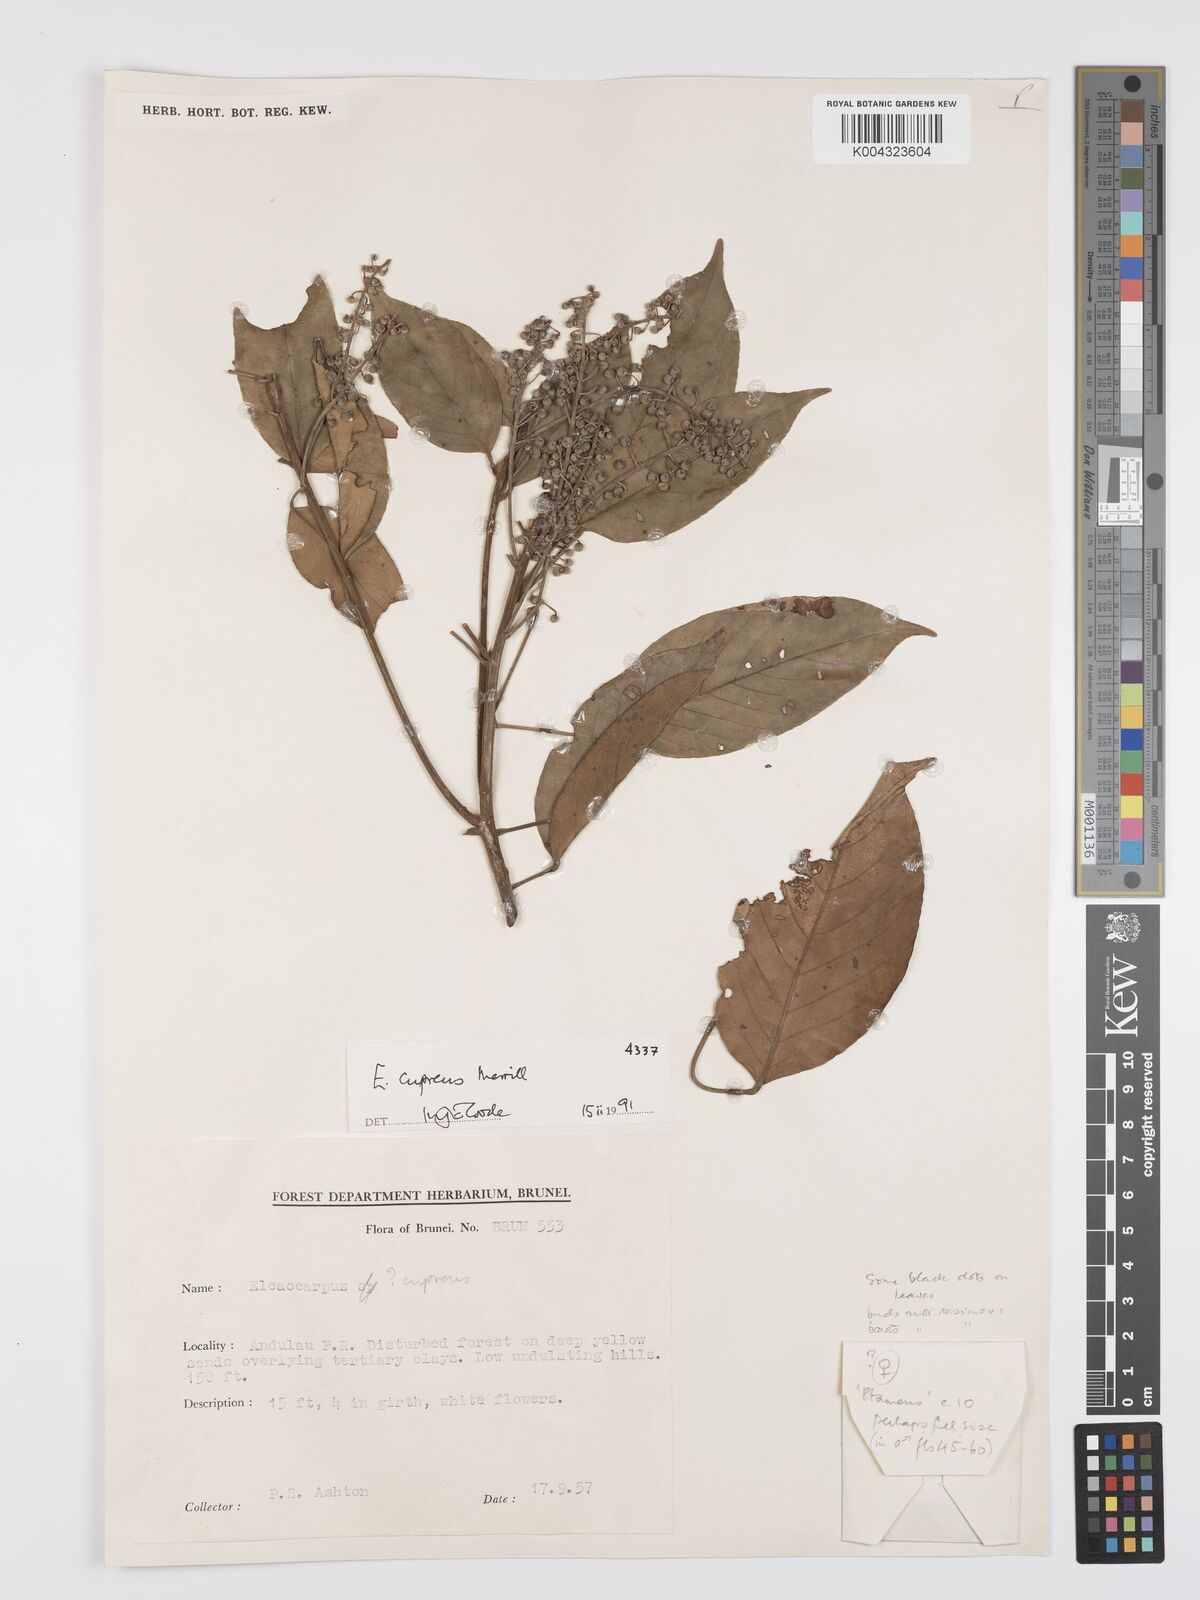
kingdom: Plantae
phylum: Tracheophyta
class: Magnoliopsida
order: Oxalidales
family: Elaeocarpaceae
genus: Elaeocarpus
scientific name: Elaeocarpus cupreus
